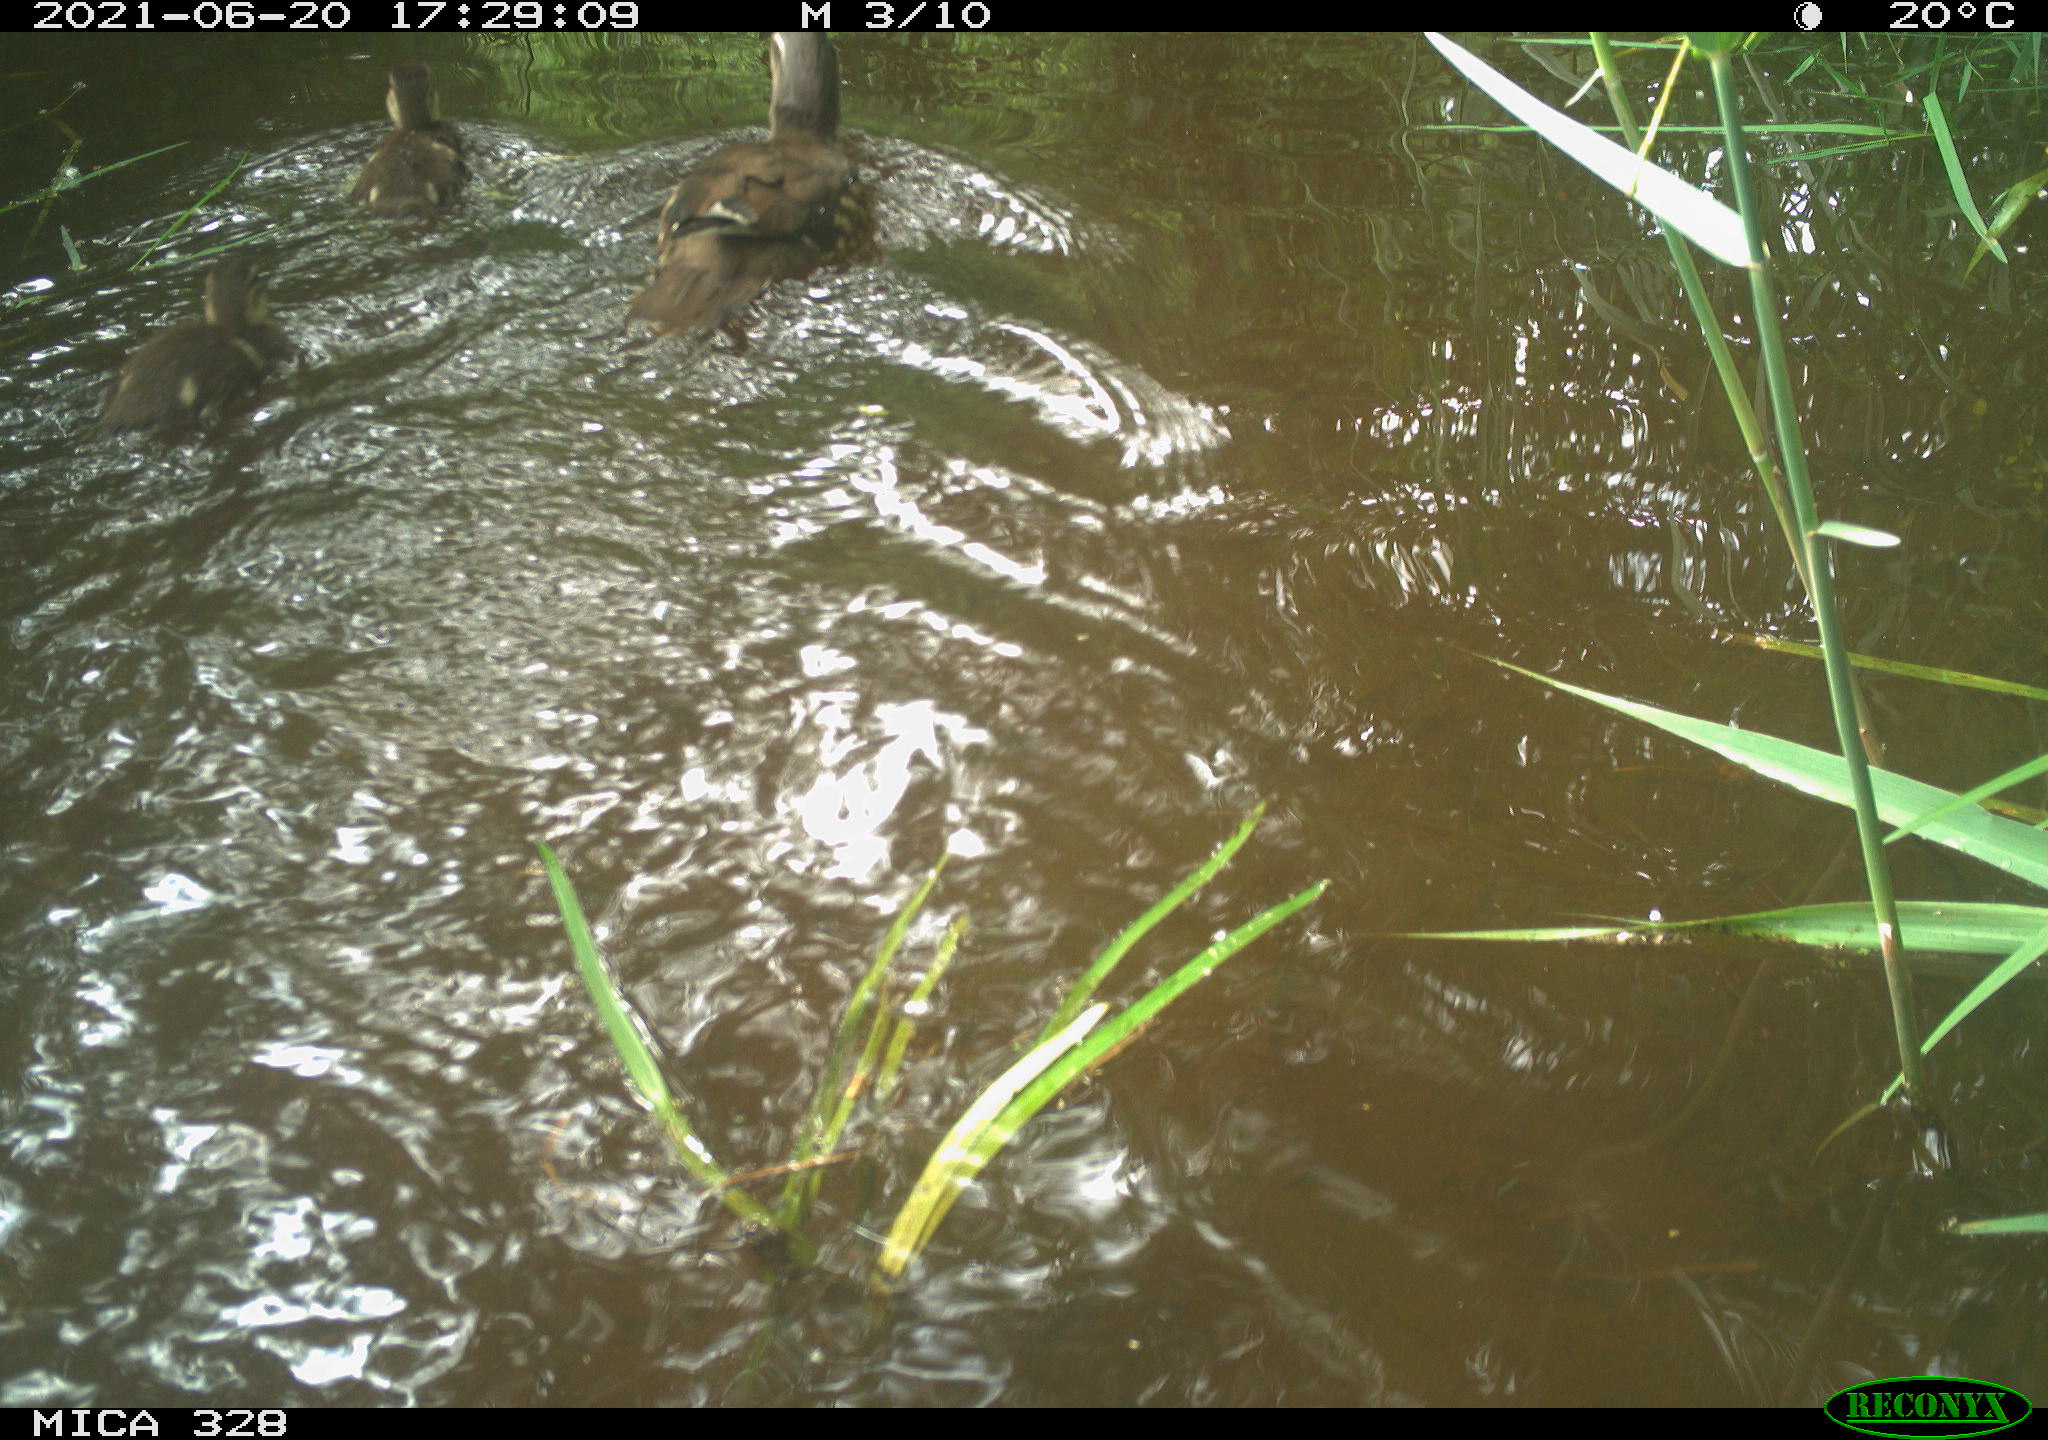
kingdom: Animalia
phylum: Chordata
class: Aves
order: Anseriformes
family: Anatidae
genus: Aix
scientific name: Aix galericulata
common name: Mandarin duck
